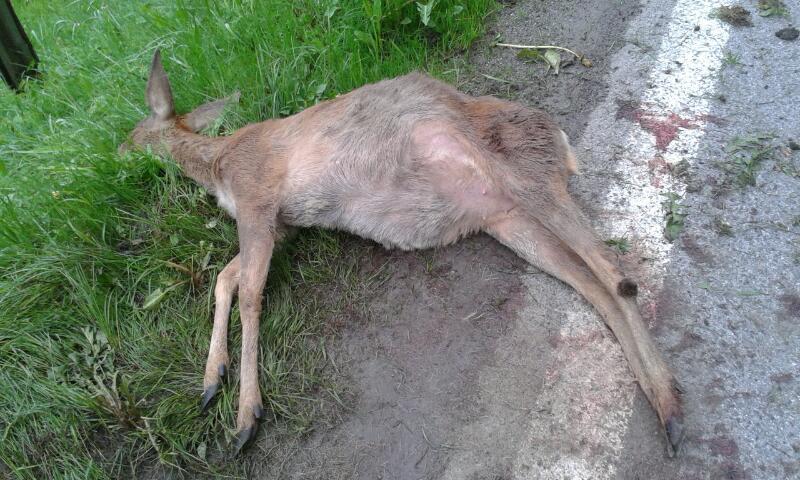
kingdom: Animalia
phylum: Chordata
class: Mammalia
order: Artiodactyla
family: Cervidae
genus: Capreolus
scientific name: Capreolus capreolus
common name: Western roe deer
